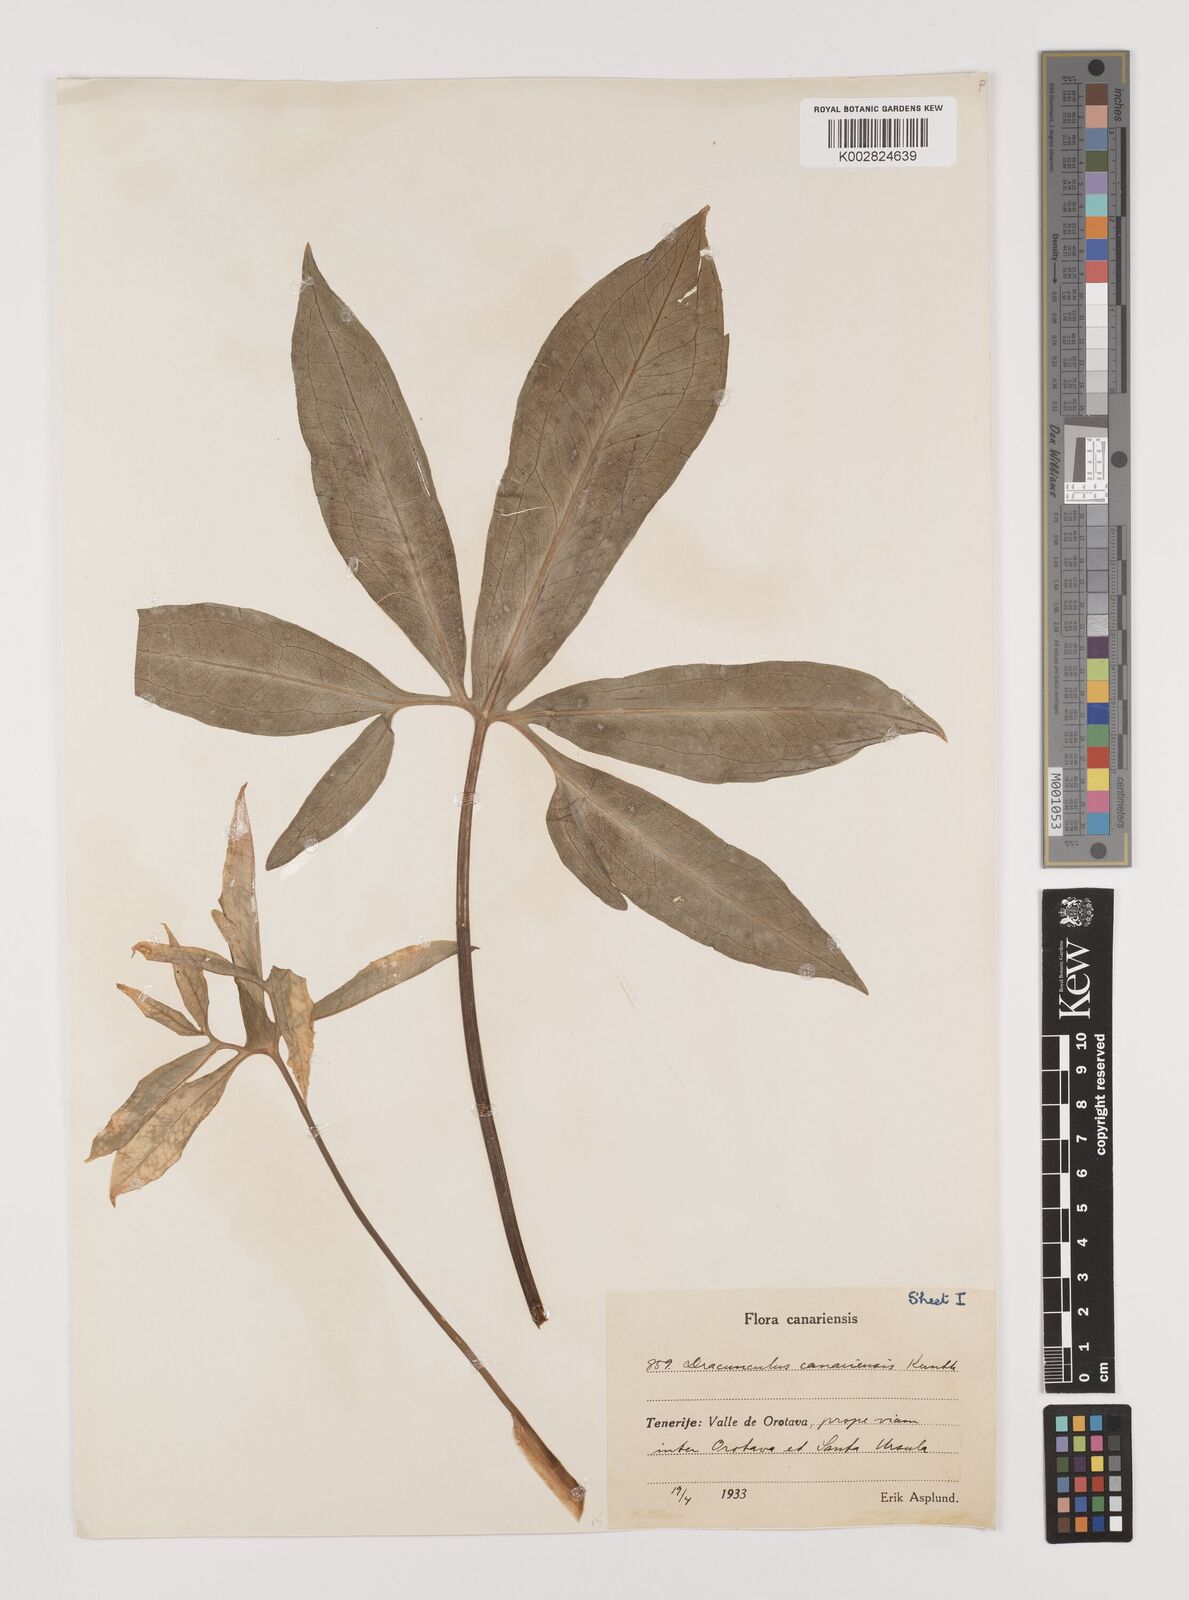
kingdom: Plantae
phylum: Tracheophyta
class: Liliopsida
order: Alismatales
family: Araceae
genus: Dracunculus
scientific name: Dracunculus canariensis
